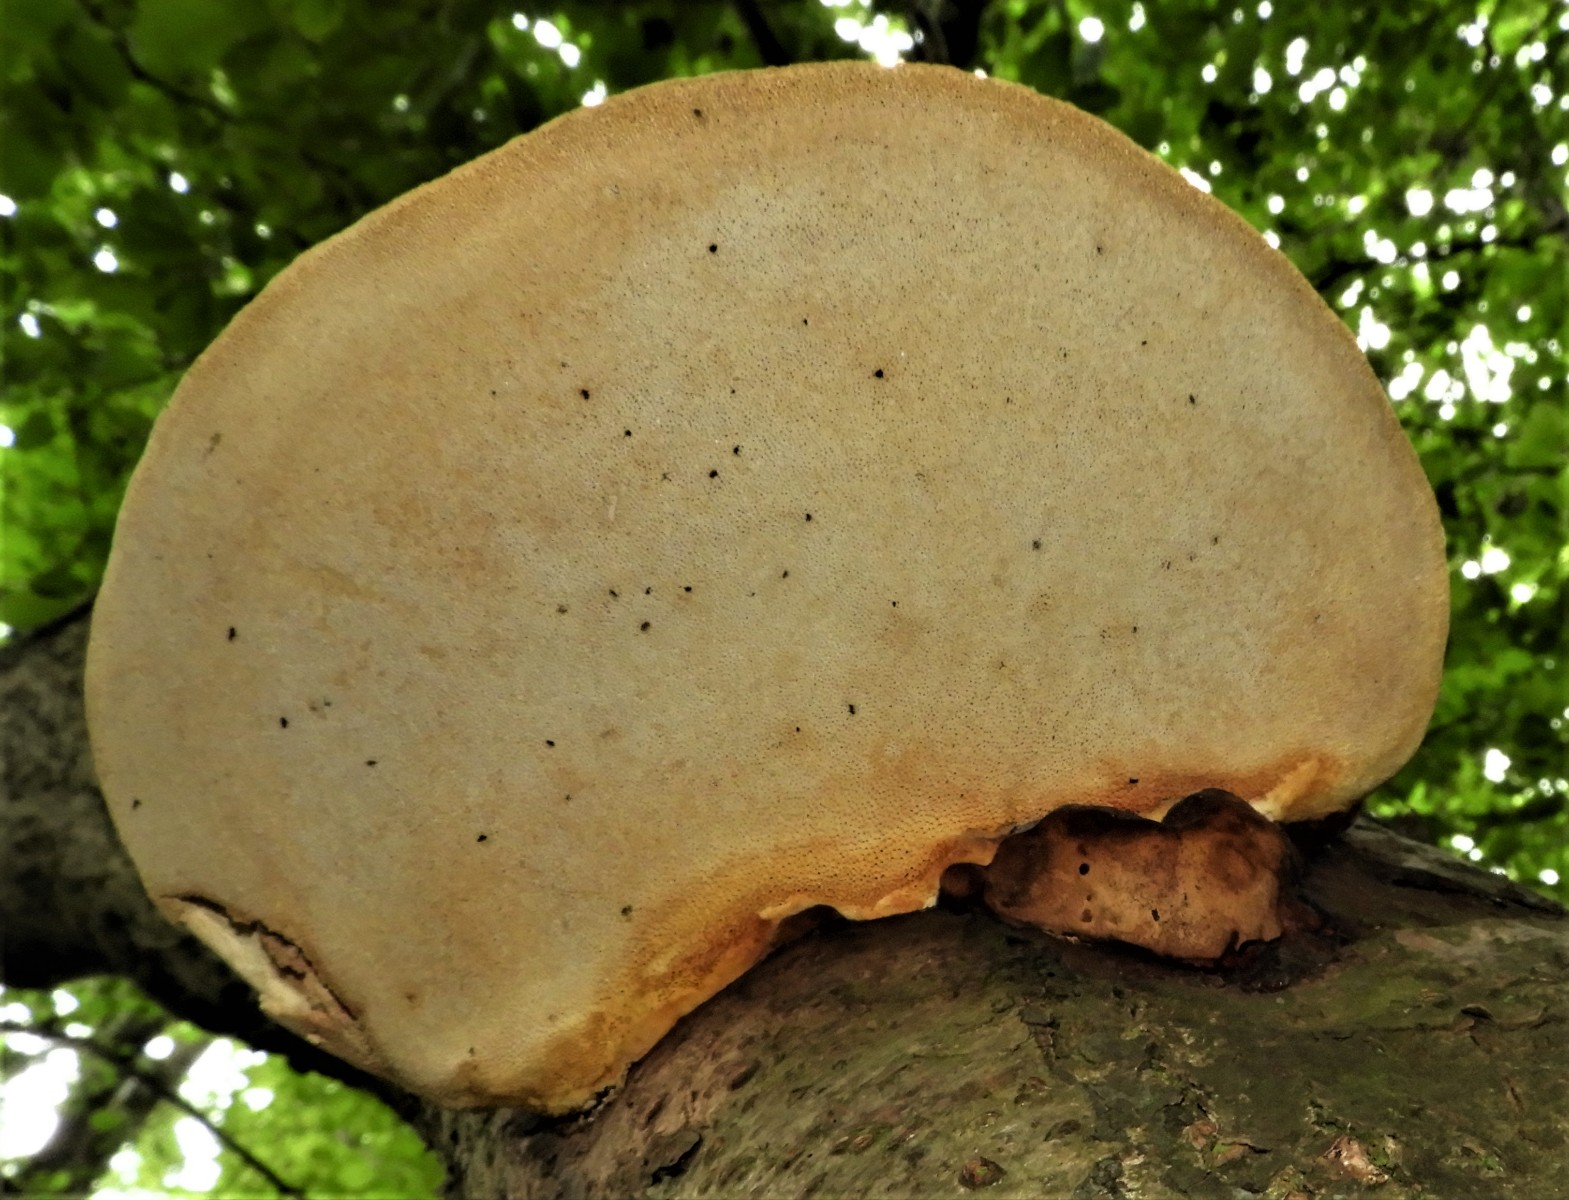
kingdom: Fungi
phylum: Basidiomycota
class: Agaricomycetes
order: Polyporales
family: Fomitopsidaceae
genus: Fomitopsis
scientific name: Fomitopsis pinicola
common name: randbæltet hovporesvamp
